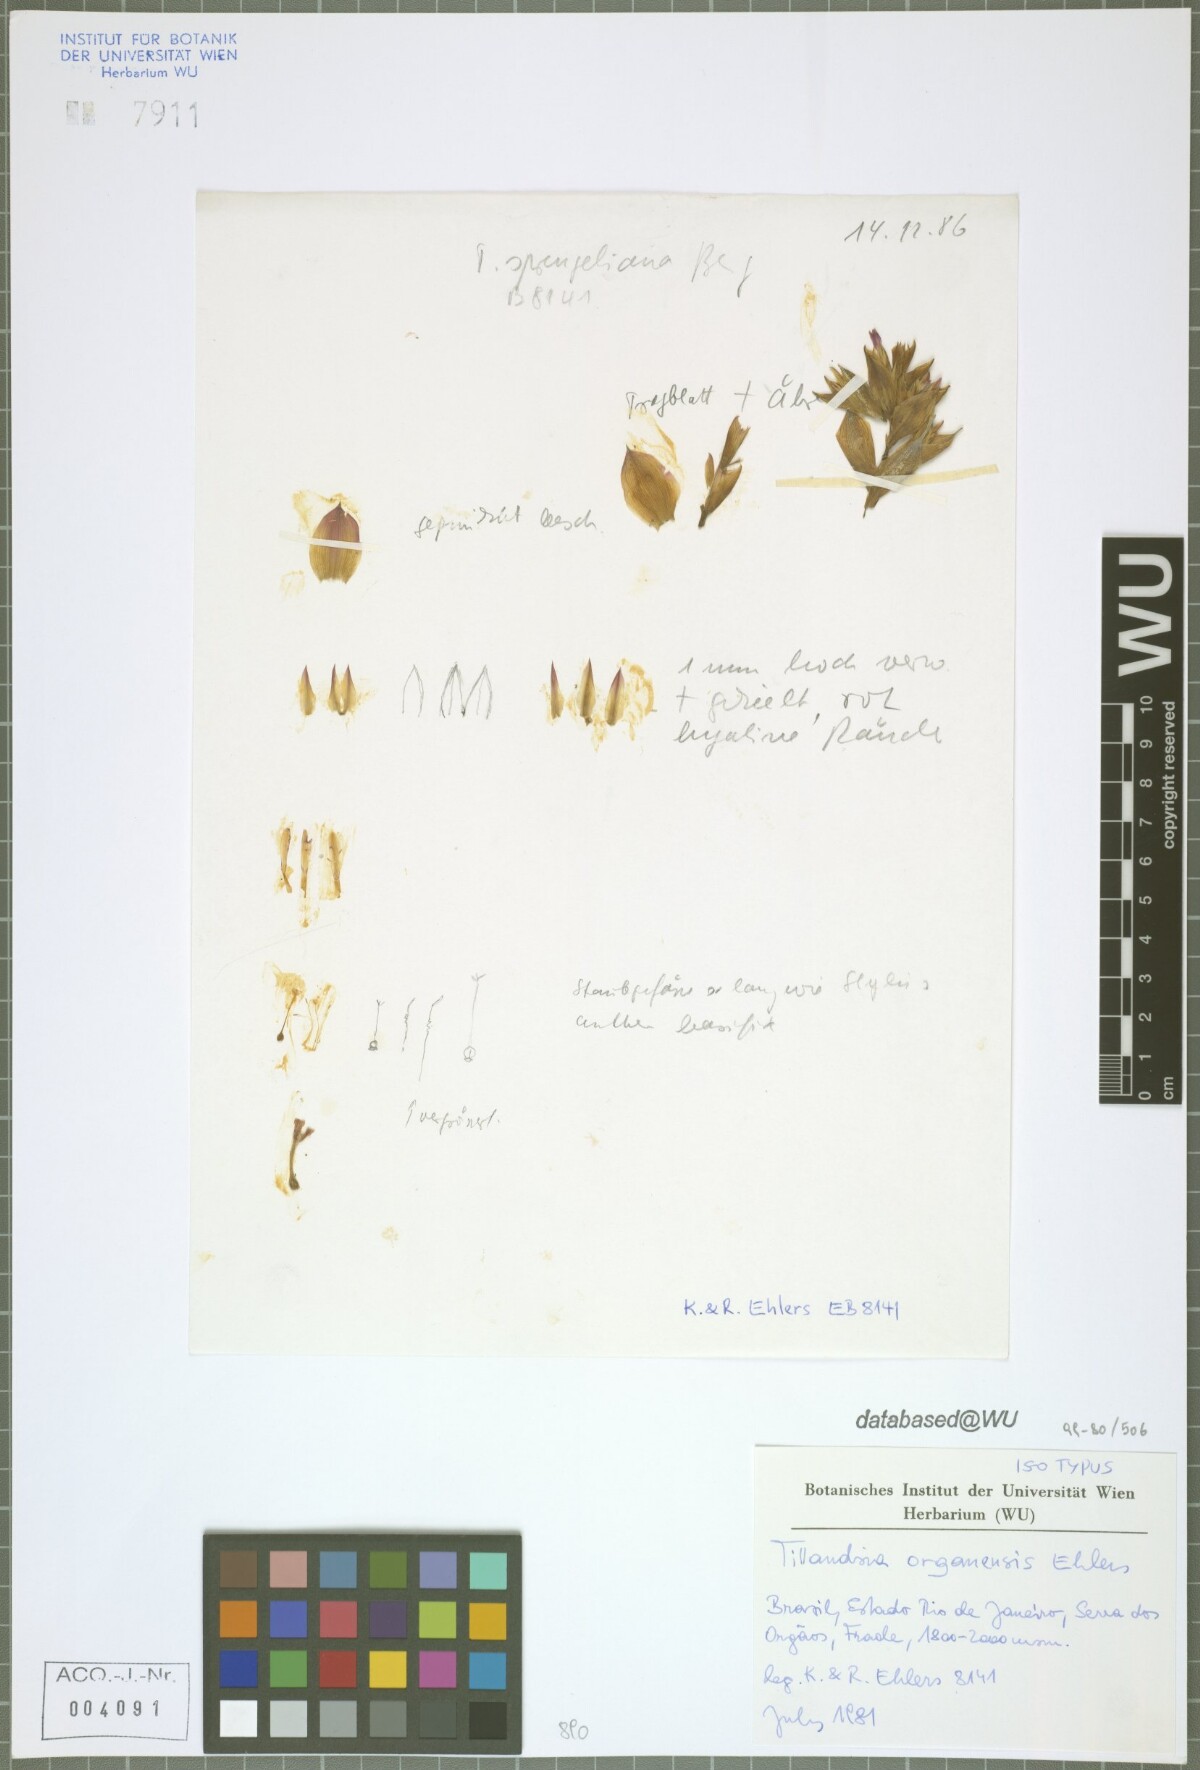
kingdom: Plantae
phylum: Tracheophyta
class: Liliopsida
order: Poales
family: Bromeliaceae
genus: Tillandsia
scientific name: Tillandsia organensis
